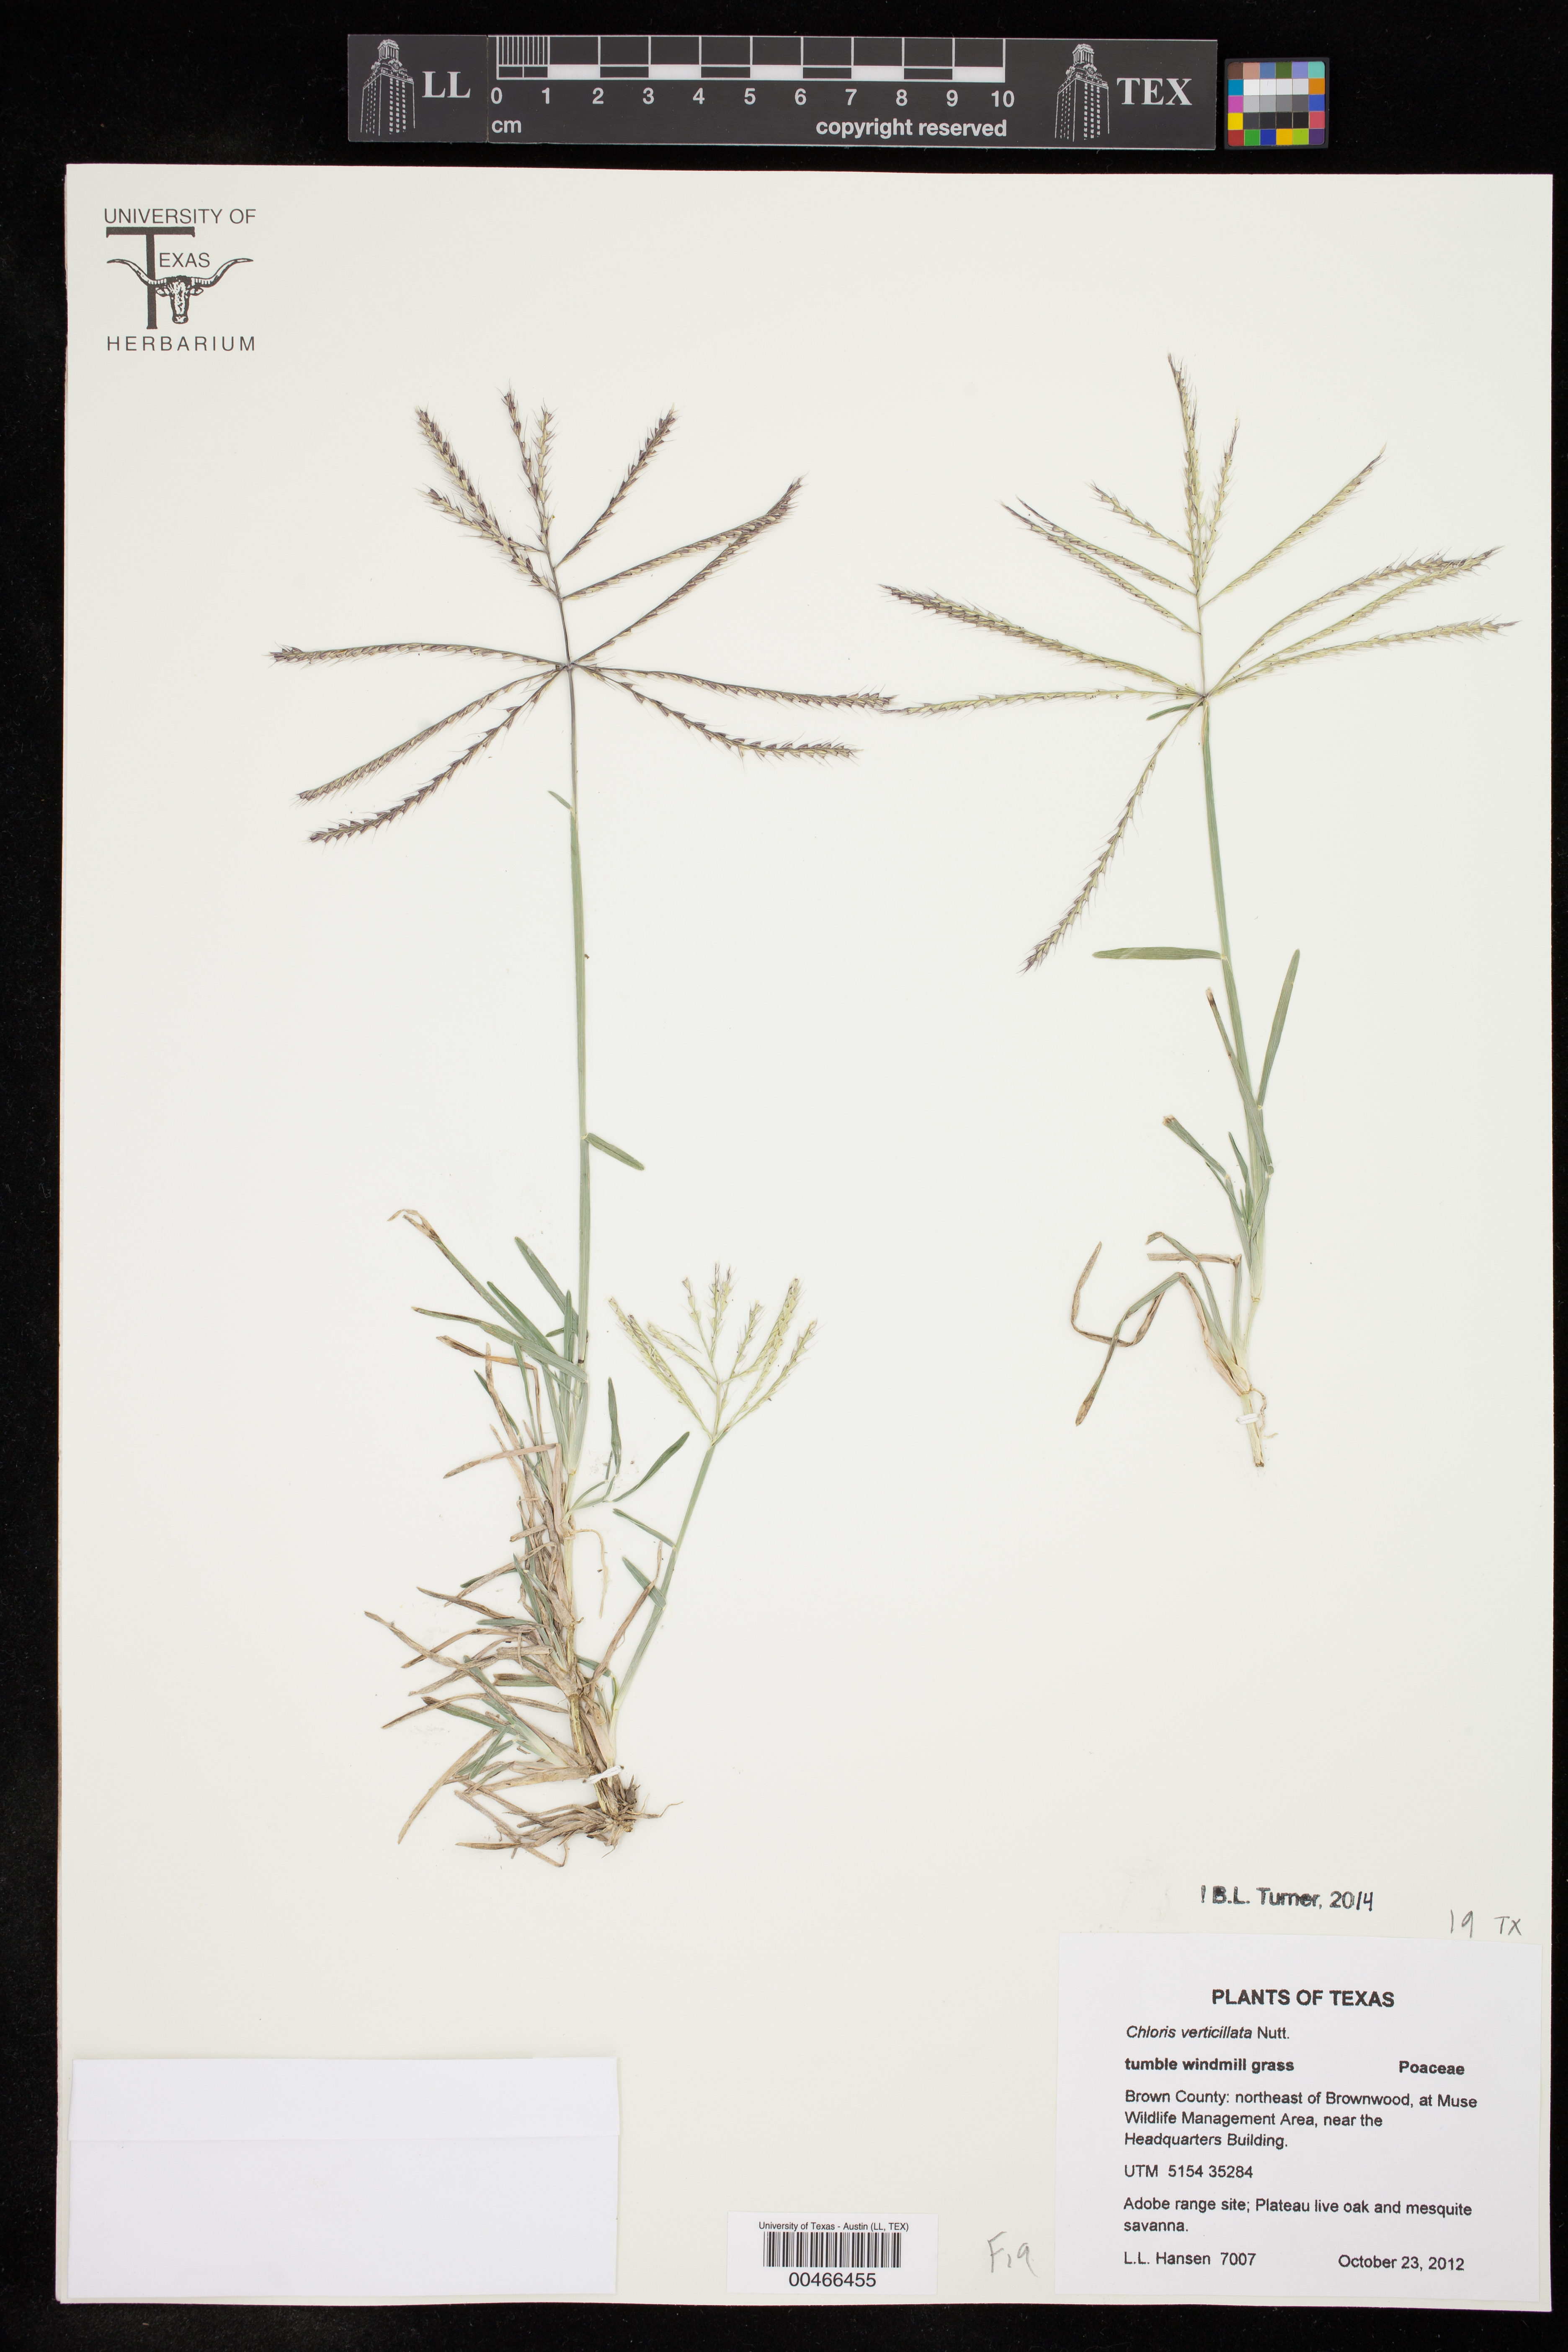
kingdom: Plantae
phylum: Tracheophyta
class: Liliopsida
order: Poales
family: Poaceae
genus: Chloris
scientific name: Chloris verticillata
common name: Tumble windmill grass
